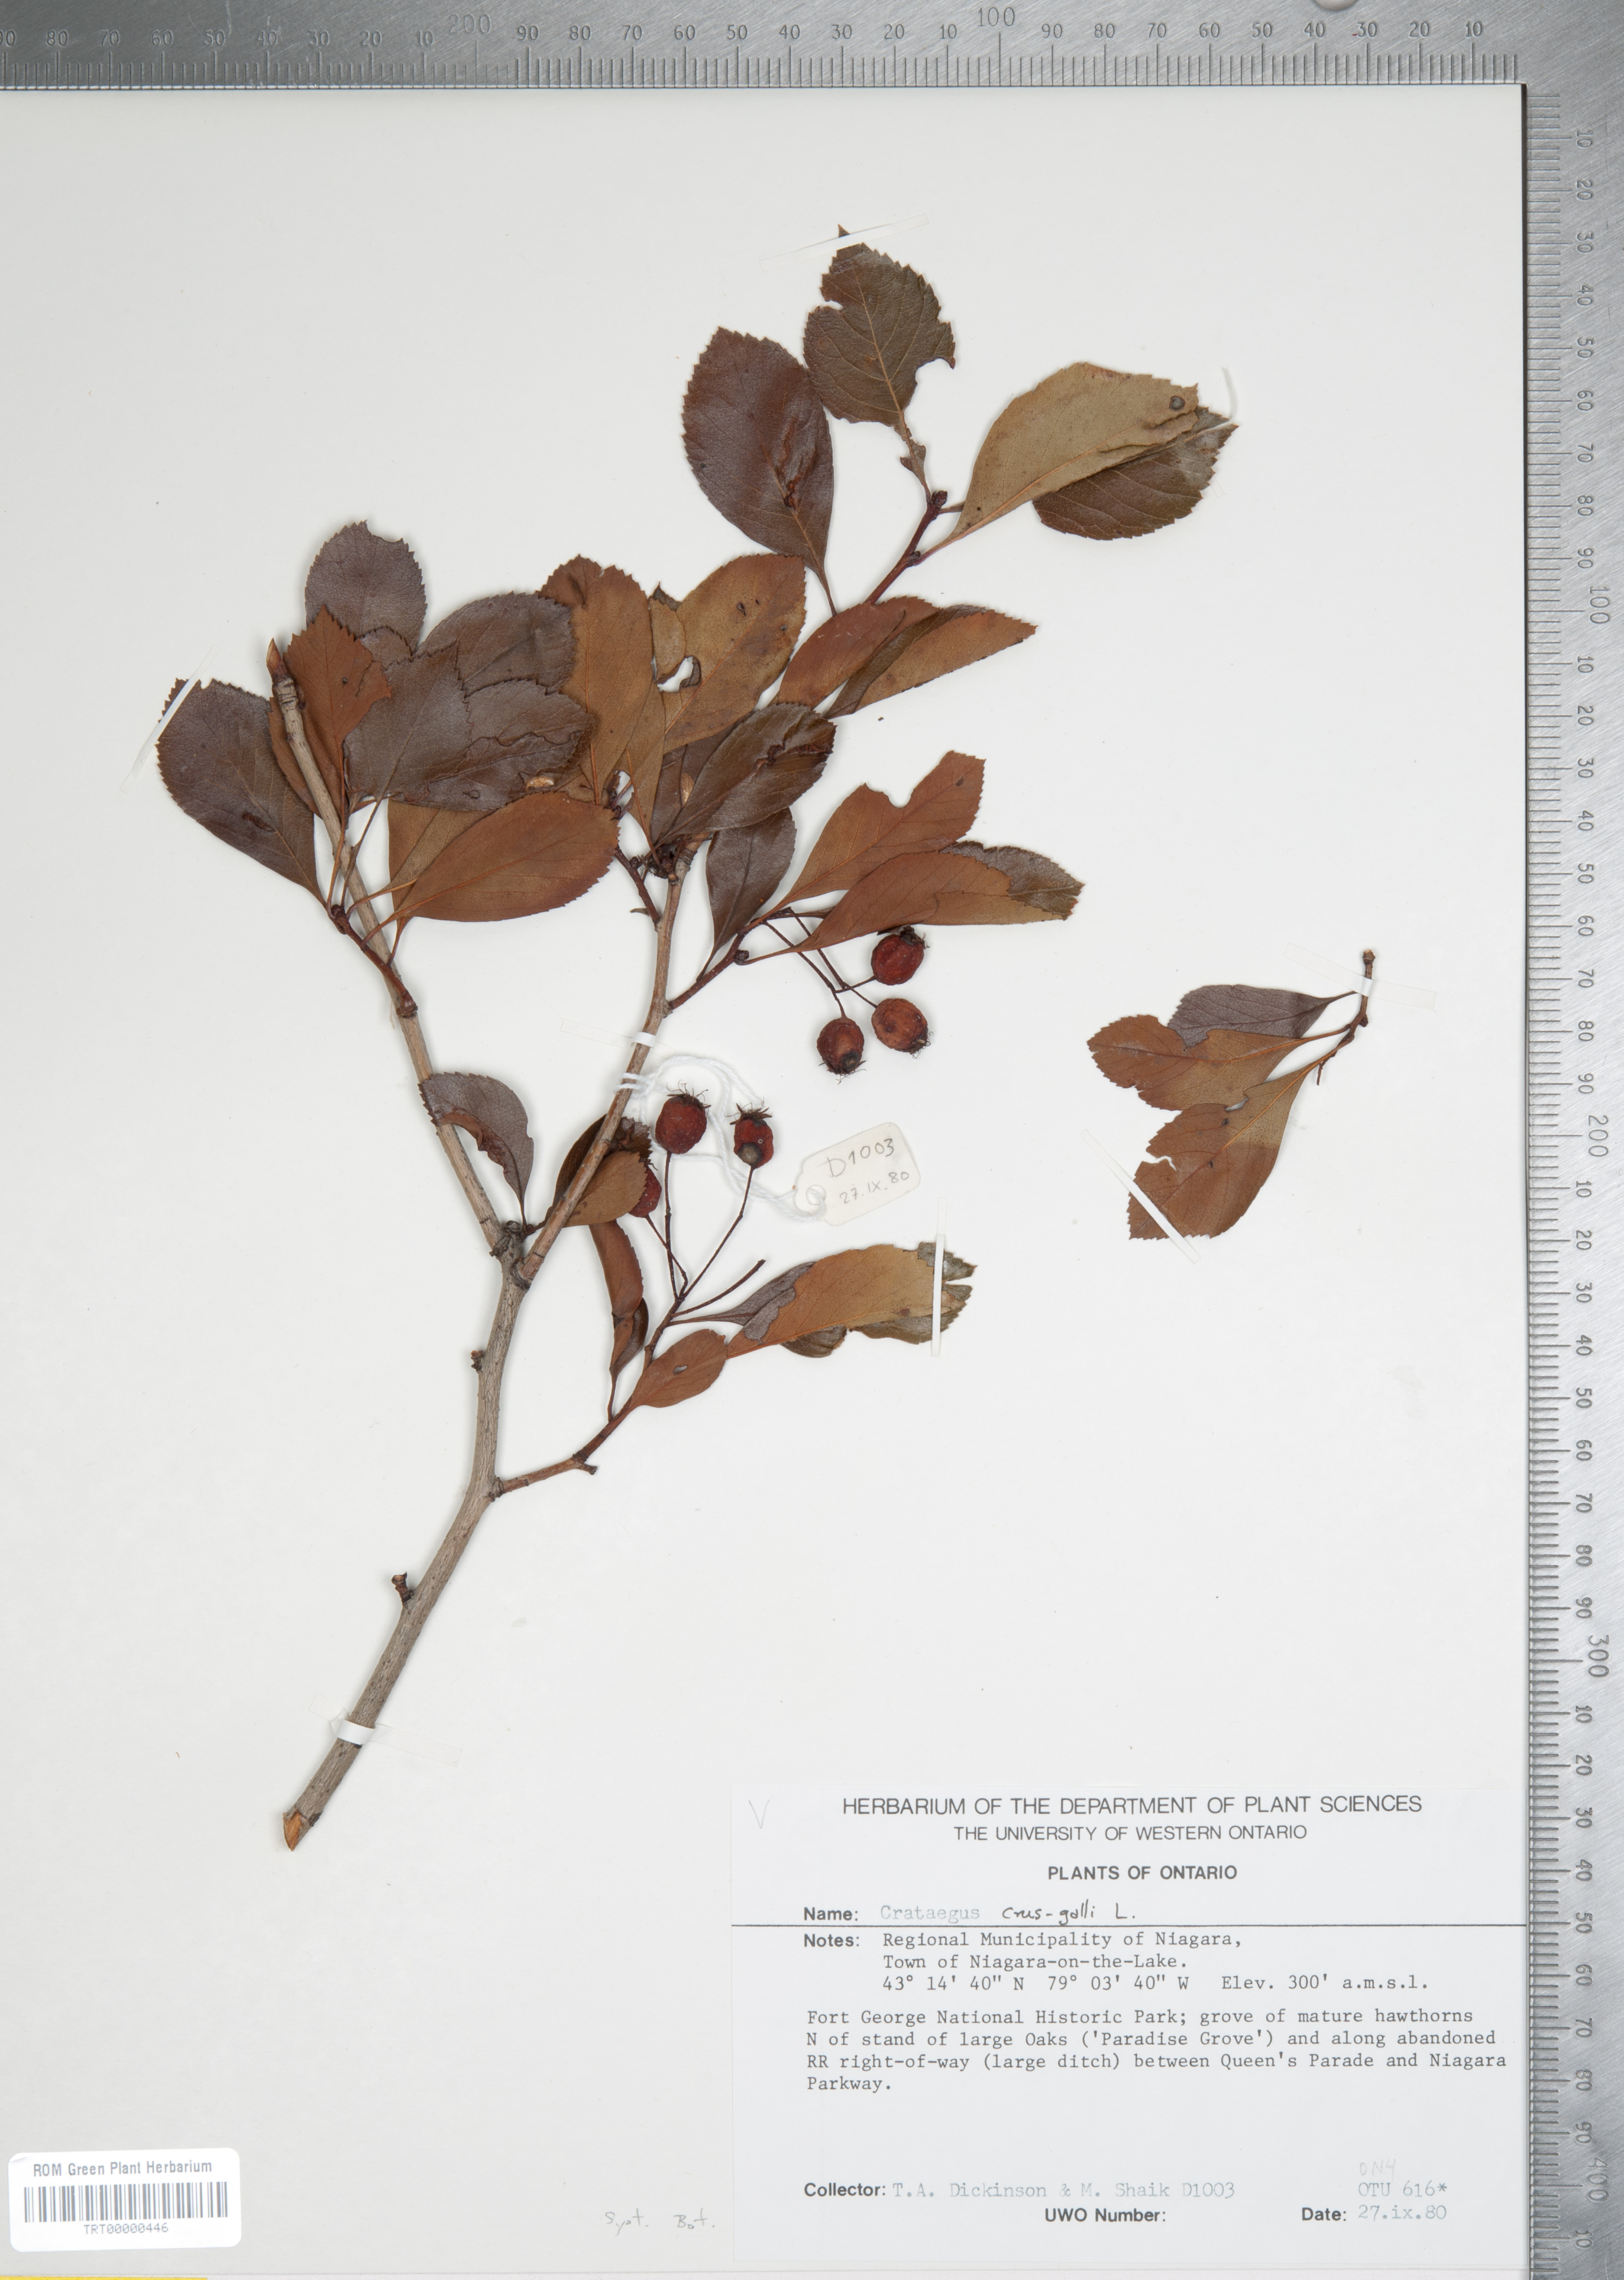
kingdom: Plantae
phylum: Tracheophyta
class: Magnoliopsida
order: Rosales
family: Rosaceae
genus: Crataegus
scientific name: Crataegus crus-galli
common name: Cockspurthorn
